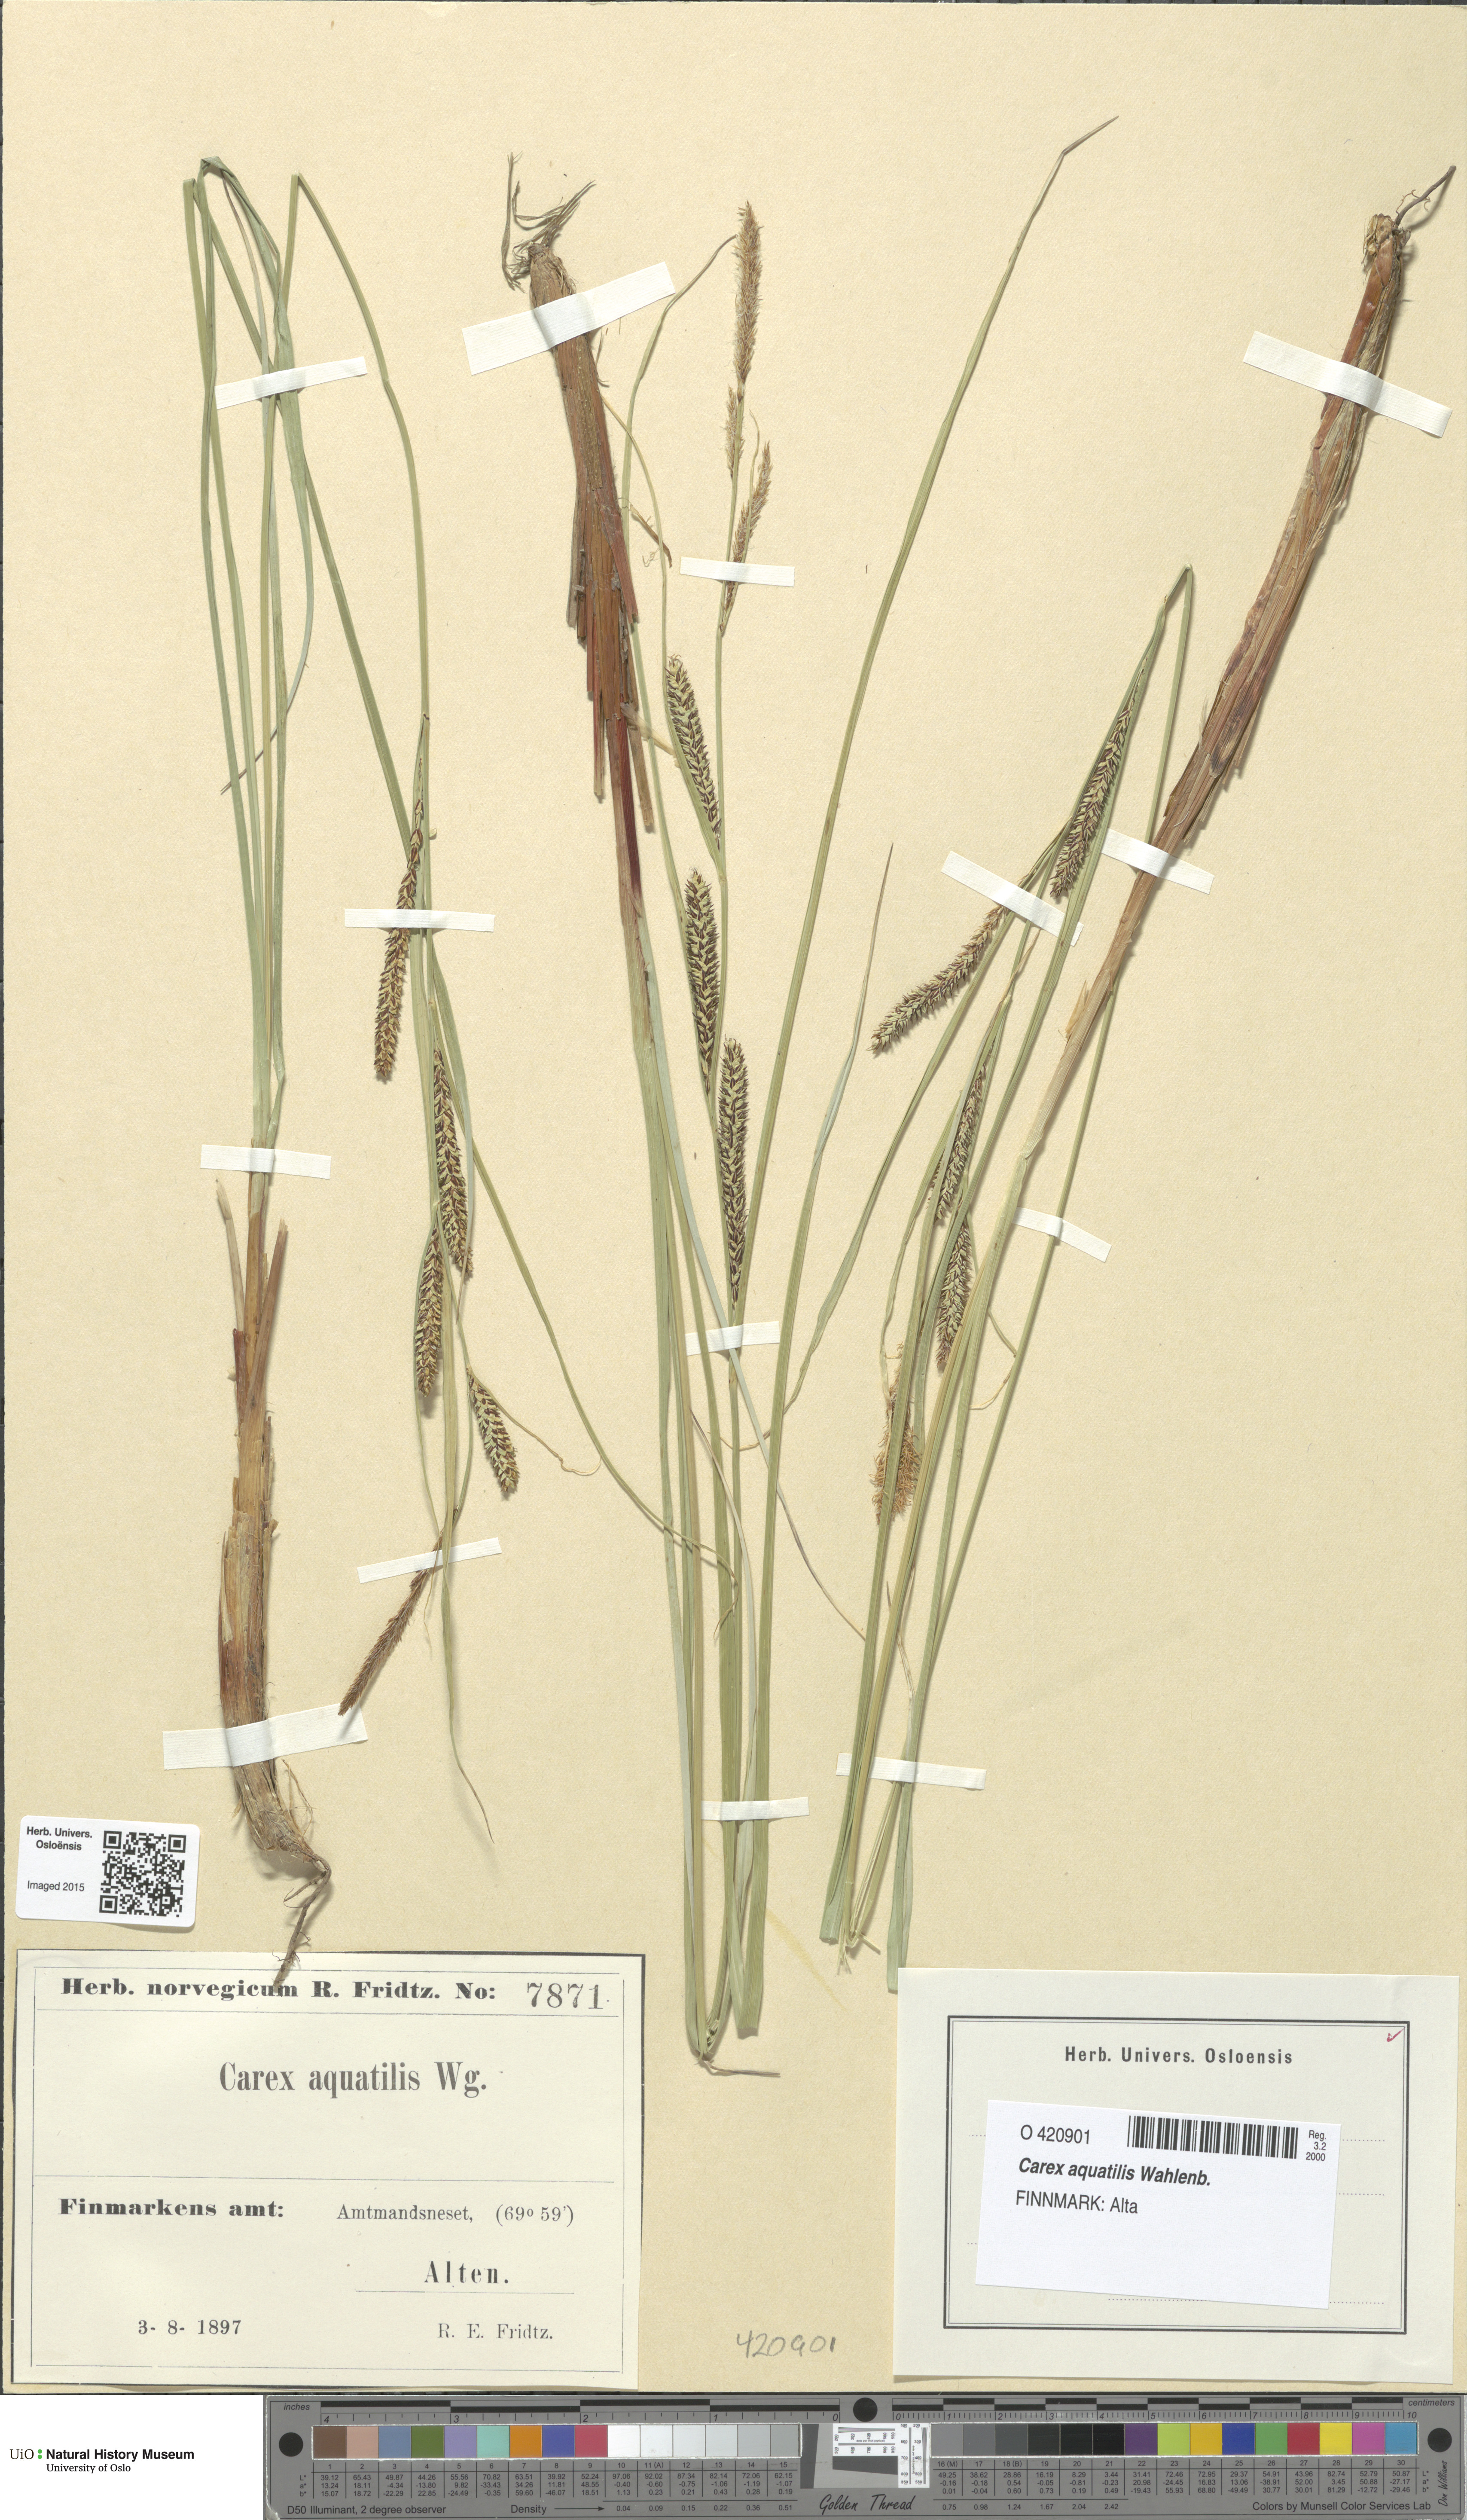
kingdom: Plantae
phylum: Tracheophyta
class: Liliopsida
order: Poales
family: Cyperaceae
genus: Carex
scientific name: Carex aquatilis
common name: Water sedge
